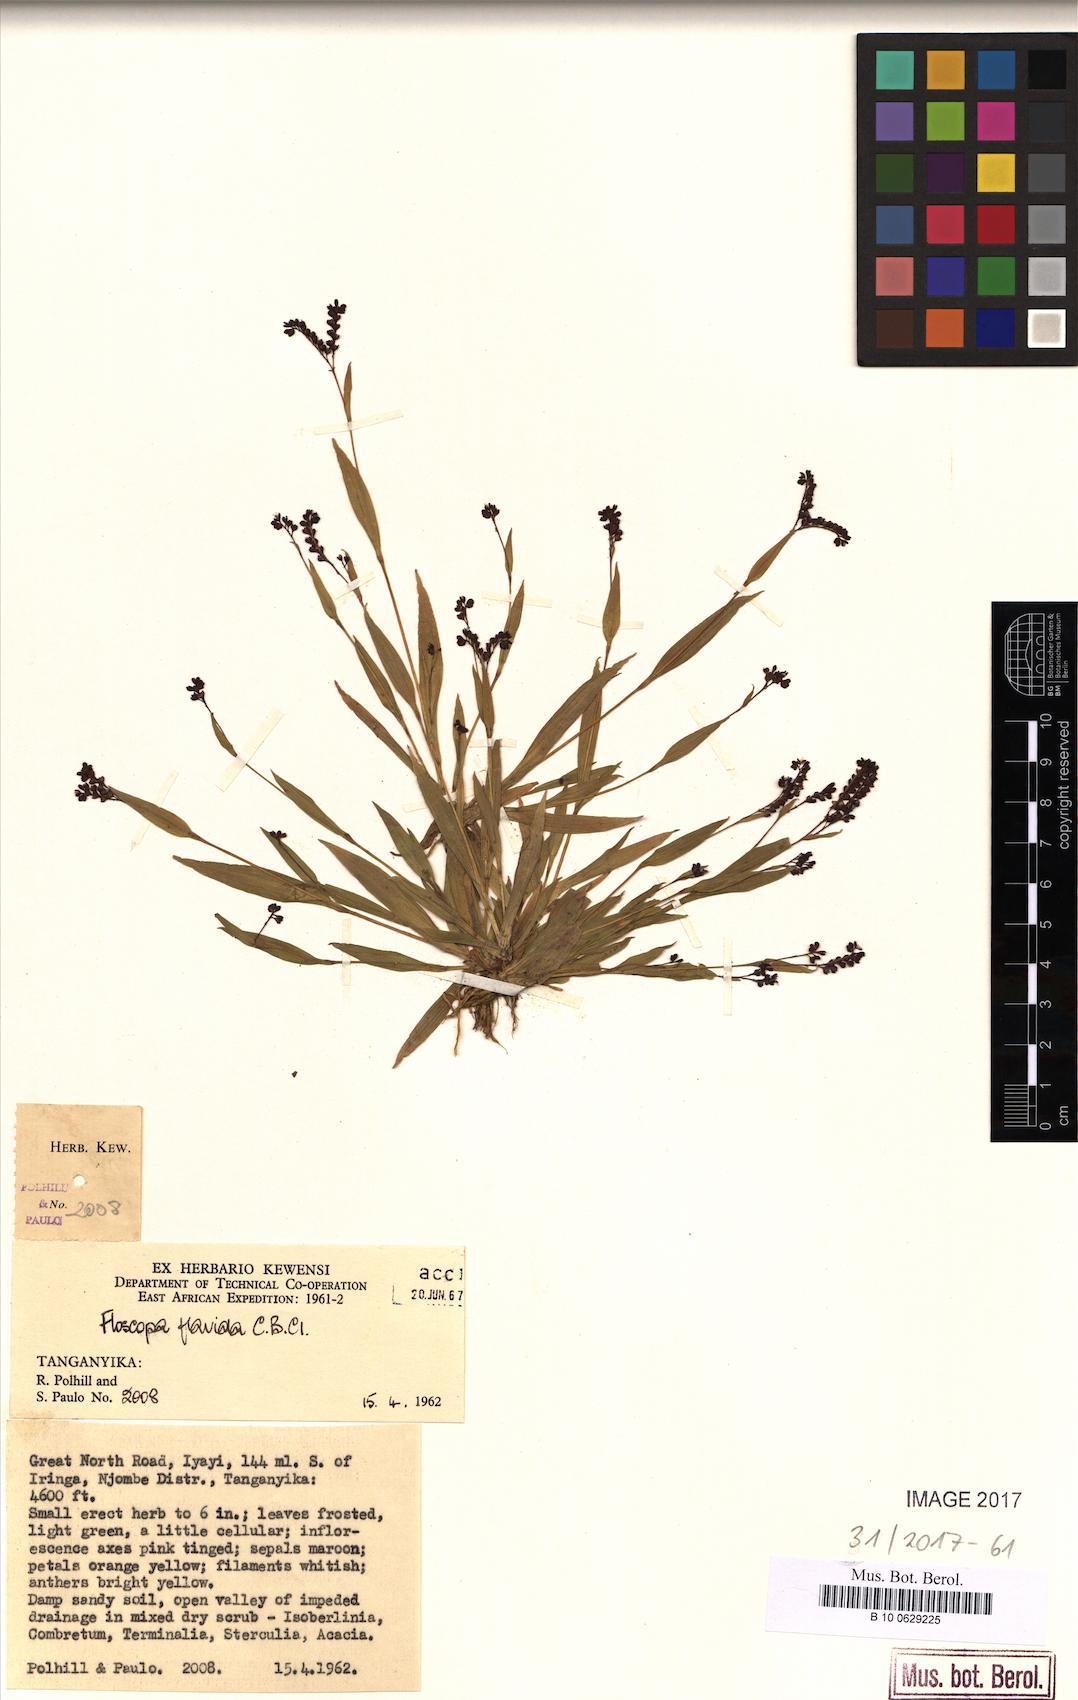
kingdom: Plantae
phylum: Tracheophyta
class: Liliopsida
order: Commelinales
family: Commelinaceae
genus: Floscopa
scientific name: Floscopa flavida
